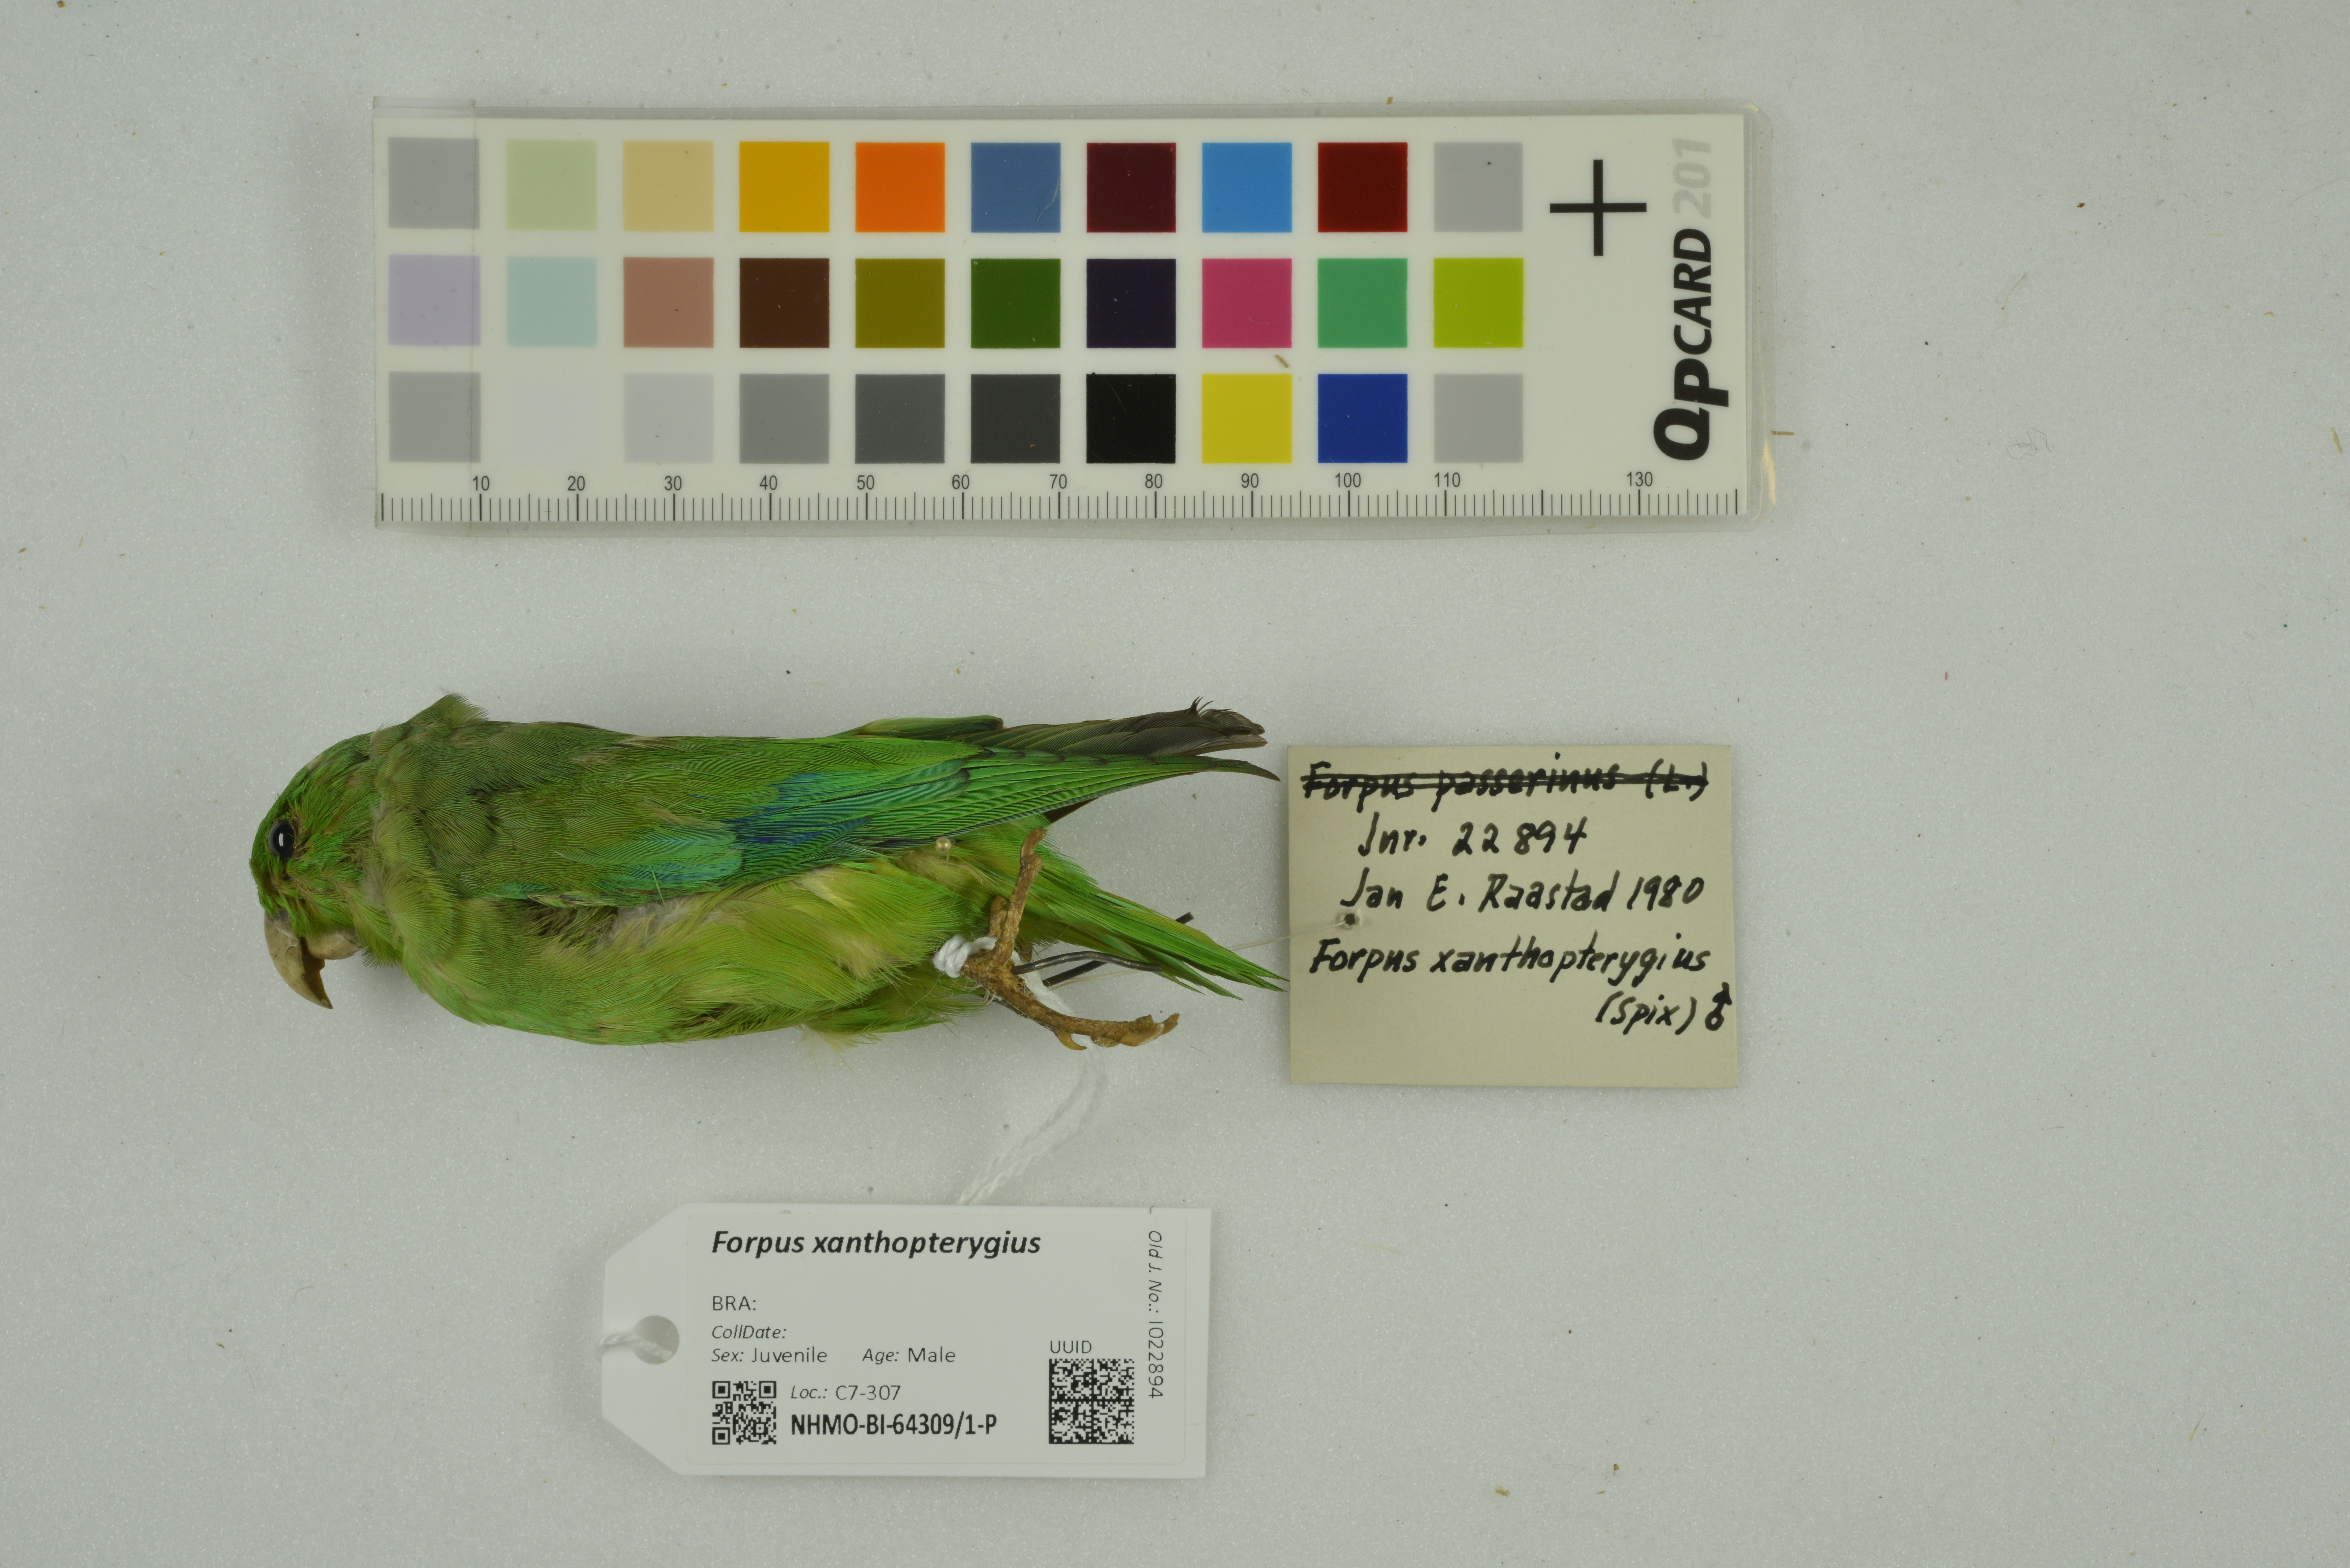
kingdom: Animalia
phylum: Chordata
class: Aves
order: Psittaciformes
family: Psittacidae
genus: Forpus
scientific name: Forpus xanthopterygius
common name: Blue-winged parrotlet
